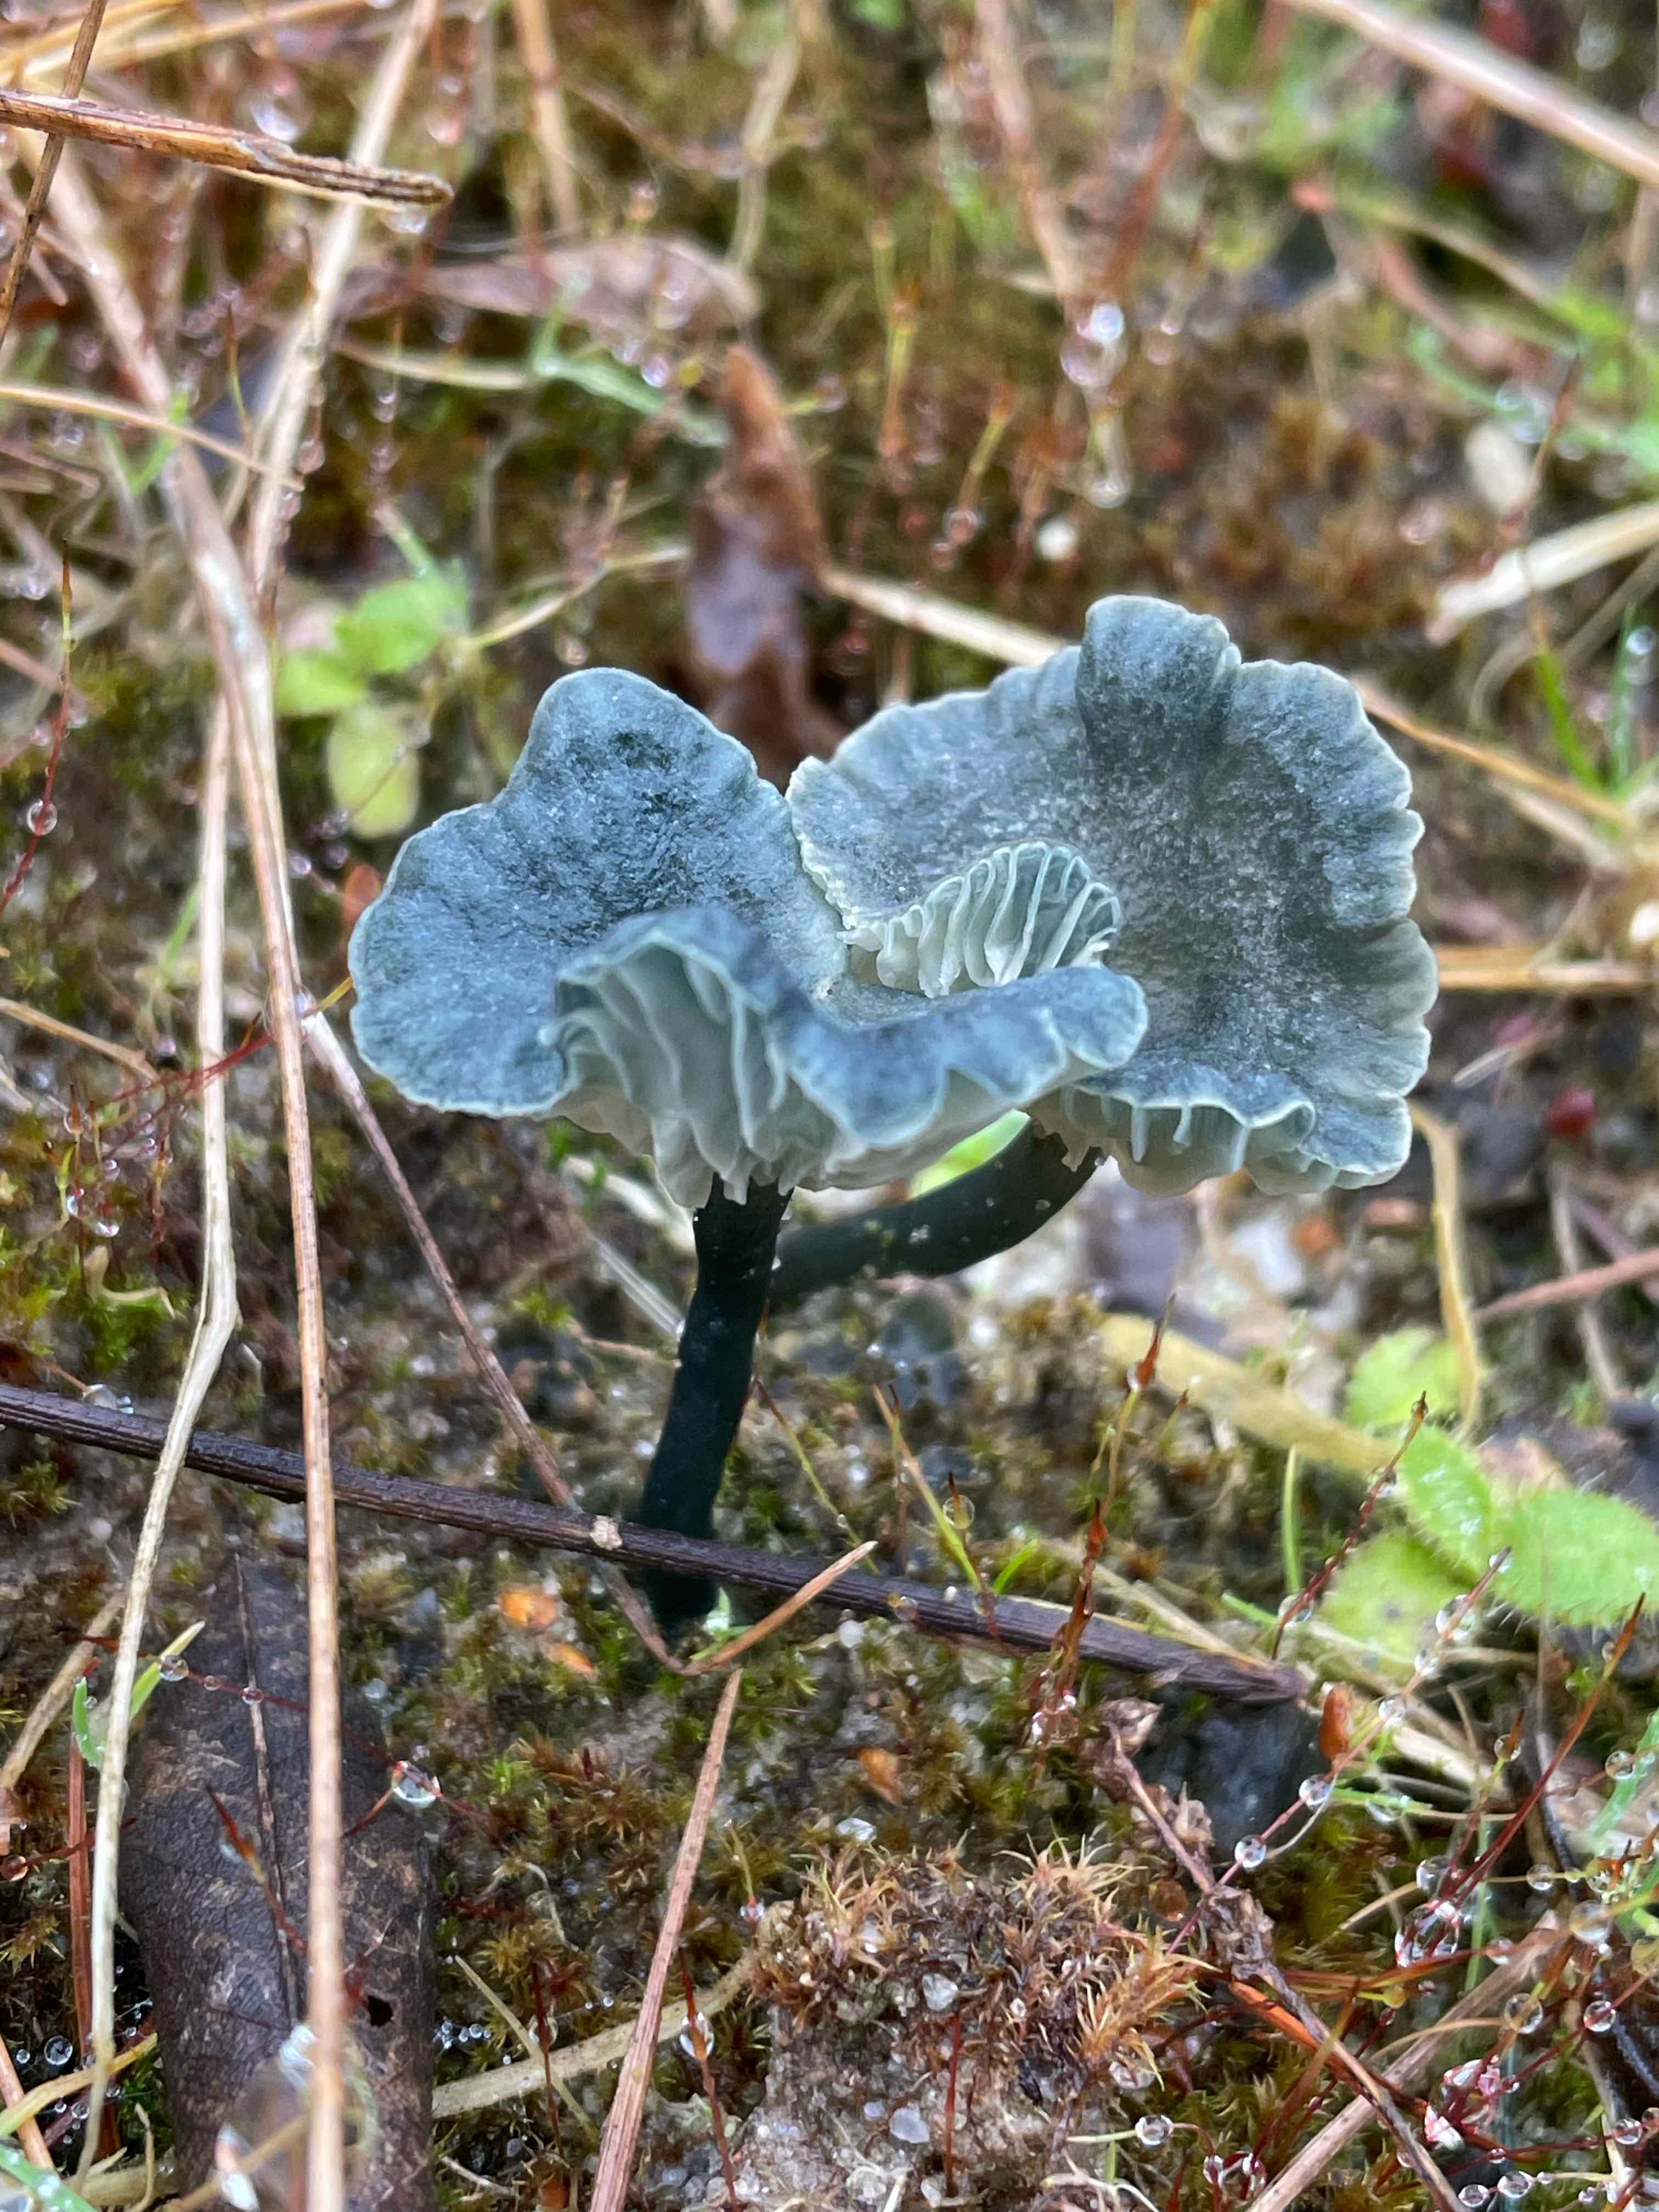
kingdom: Fungi
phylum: Basidiomycota
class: Agaricomycetes
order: Agaricales
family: Hygrophoraceae
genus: Arrhenia
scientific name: Arrhenia chlorocyanea
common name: blågrøn fontænehat
